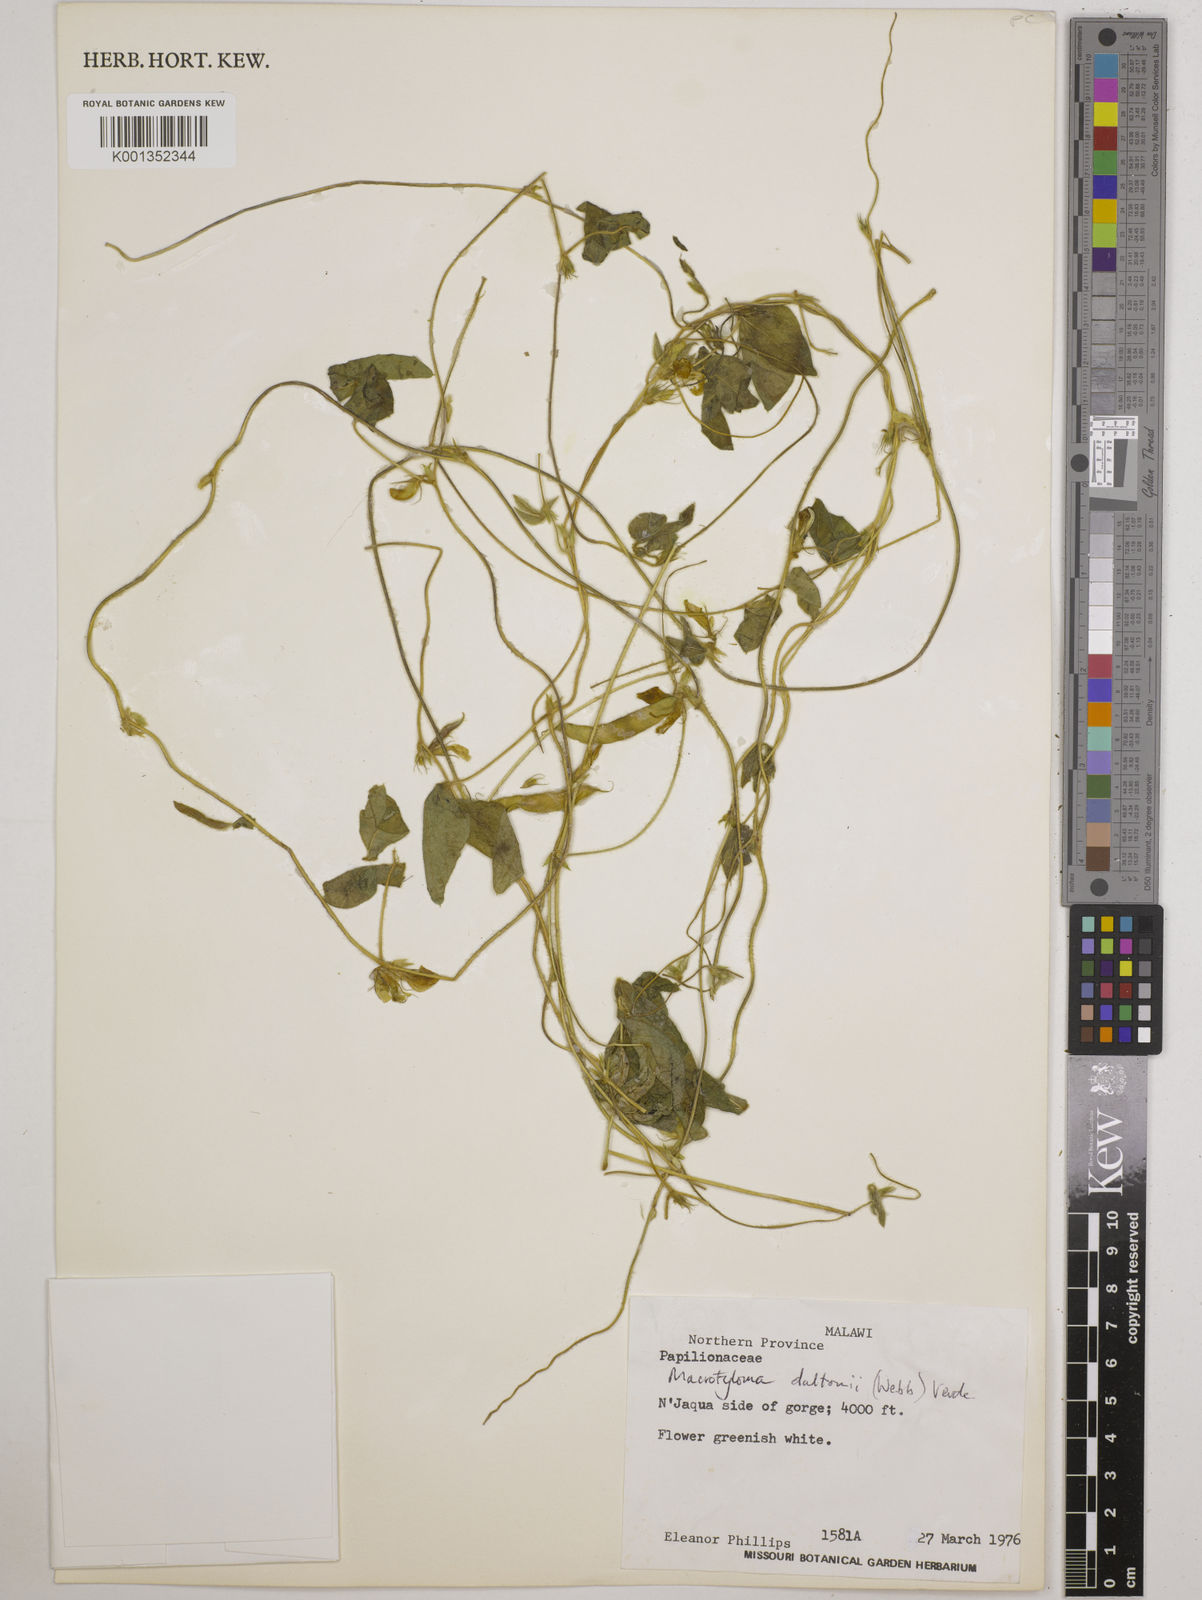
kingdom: Plantae
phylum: Tracheophyta
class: Magnoliopsida
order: Fabales
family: Fabaceae
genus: Macrotyloma
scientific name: Macrotyloma daltonii
